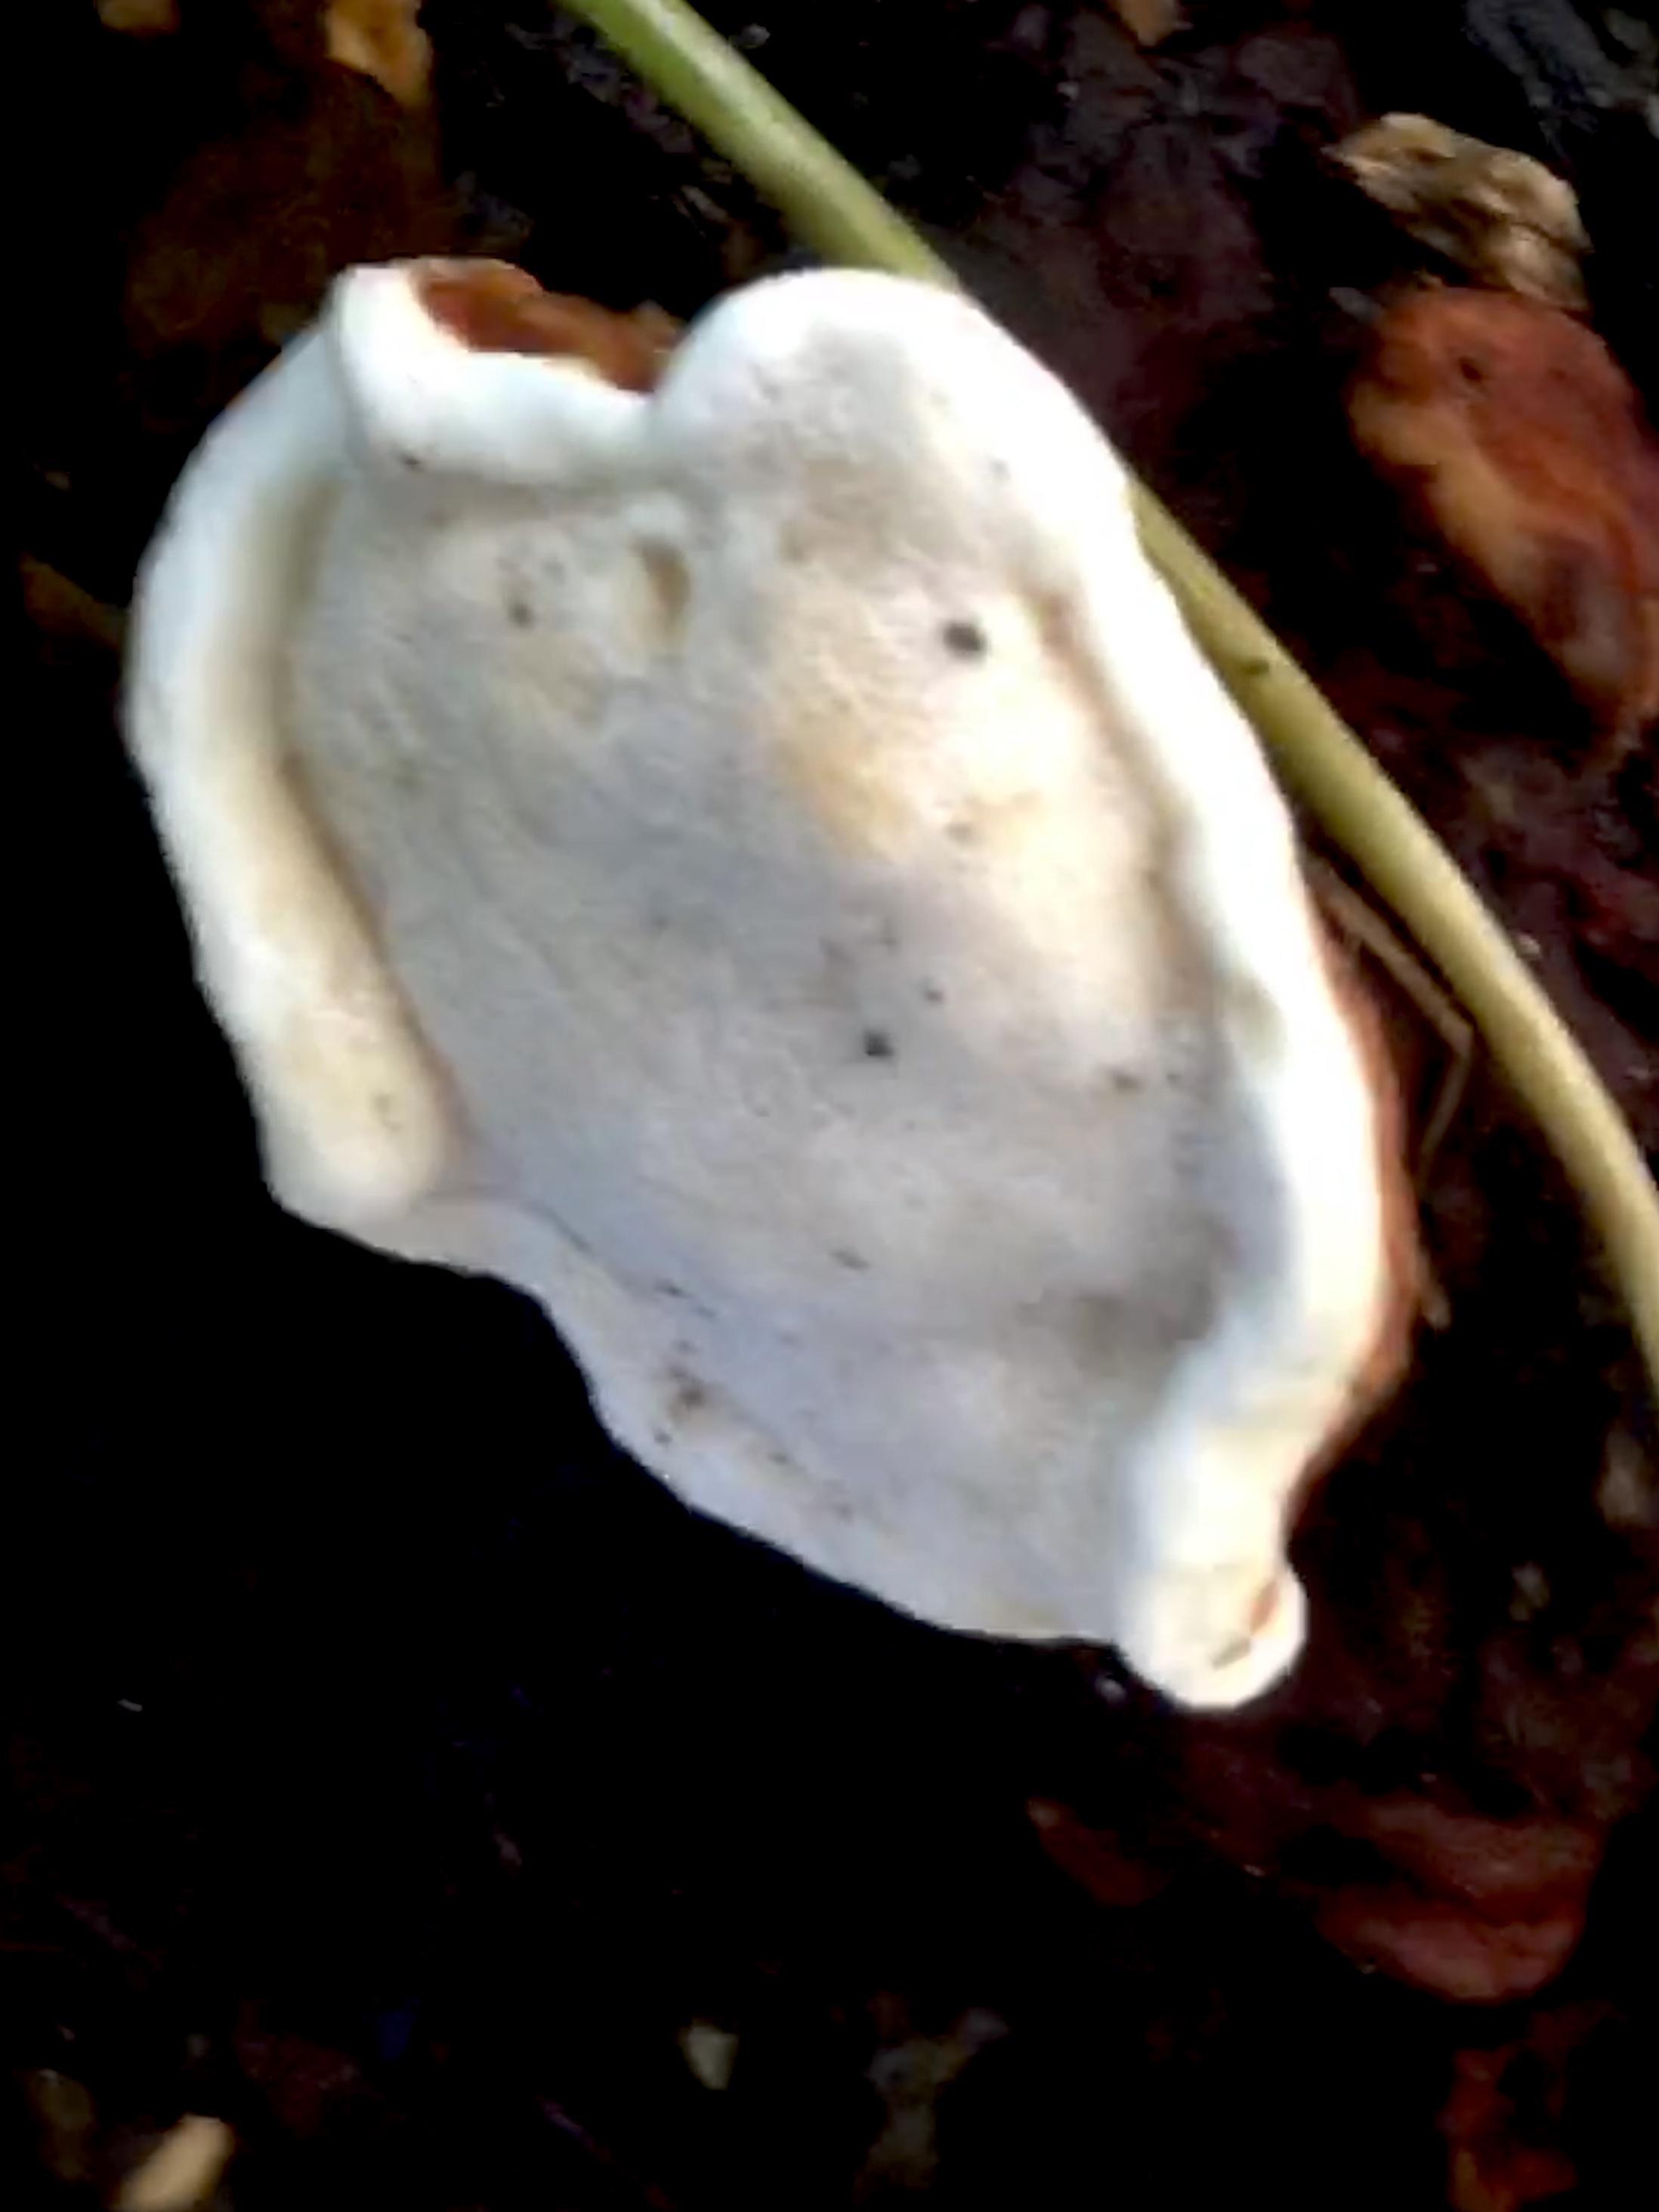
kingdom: Fungi
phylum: Basidiomycota
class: Agaricomycetes
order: Russulales
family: Bondarzewiaceae
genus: Heterobasidion
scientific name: Heterobasidion annosum
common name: almindelig rodfordærver
